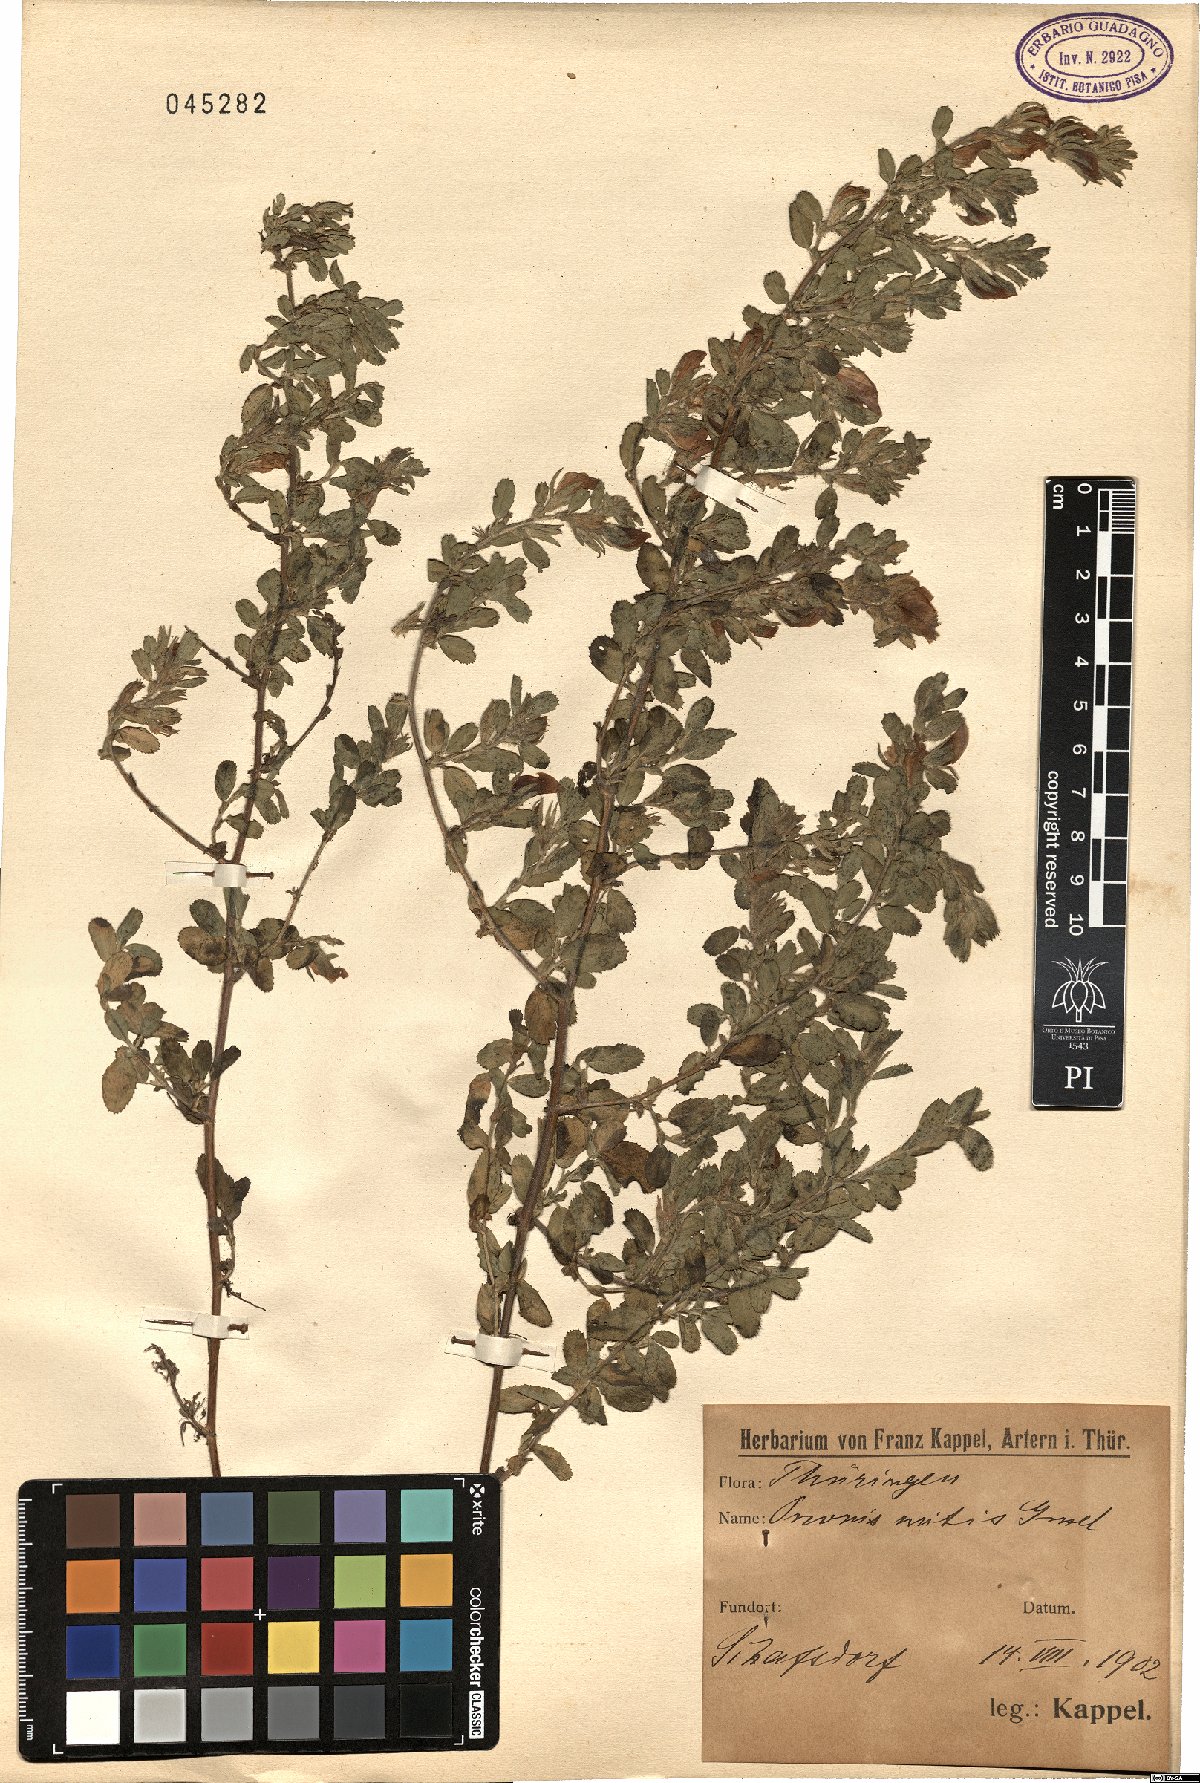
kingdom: Plantae
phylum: Tracheophyta
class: Magnoliopsida
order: Fabales
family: Fabaceae
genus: Ononis
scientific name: Ononis arvensis
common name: Field restharrow
